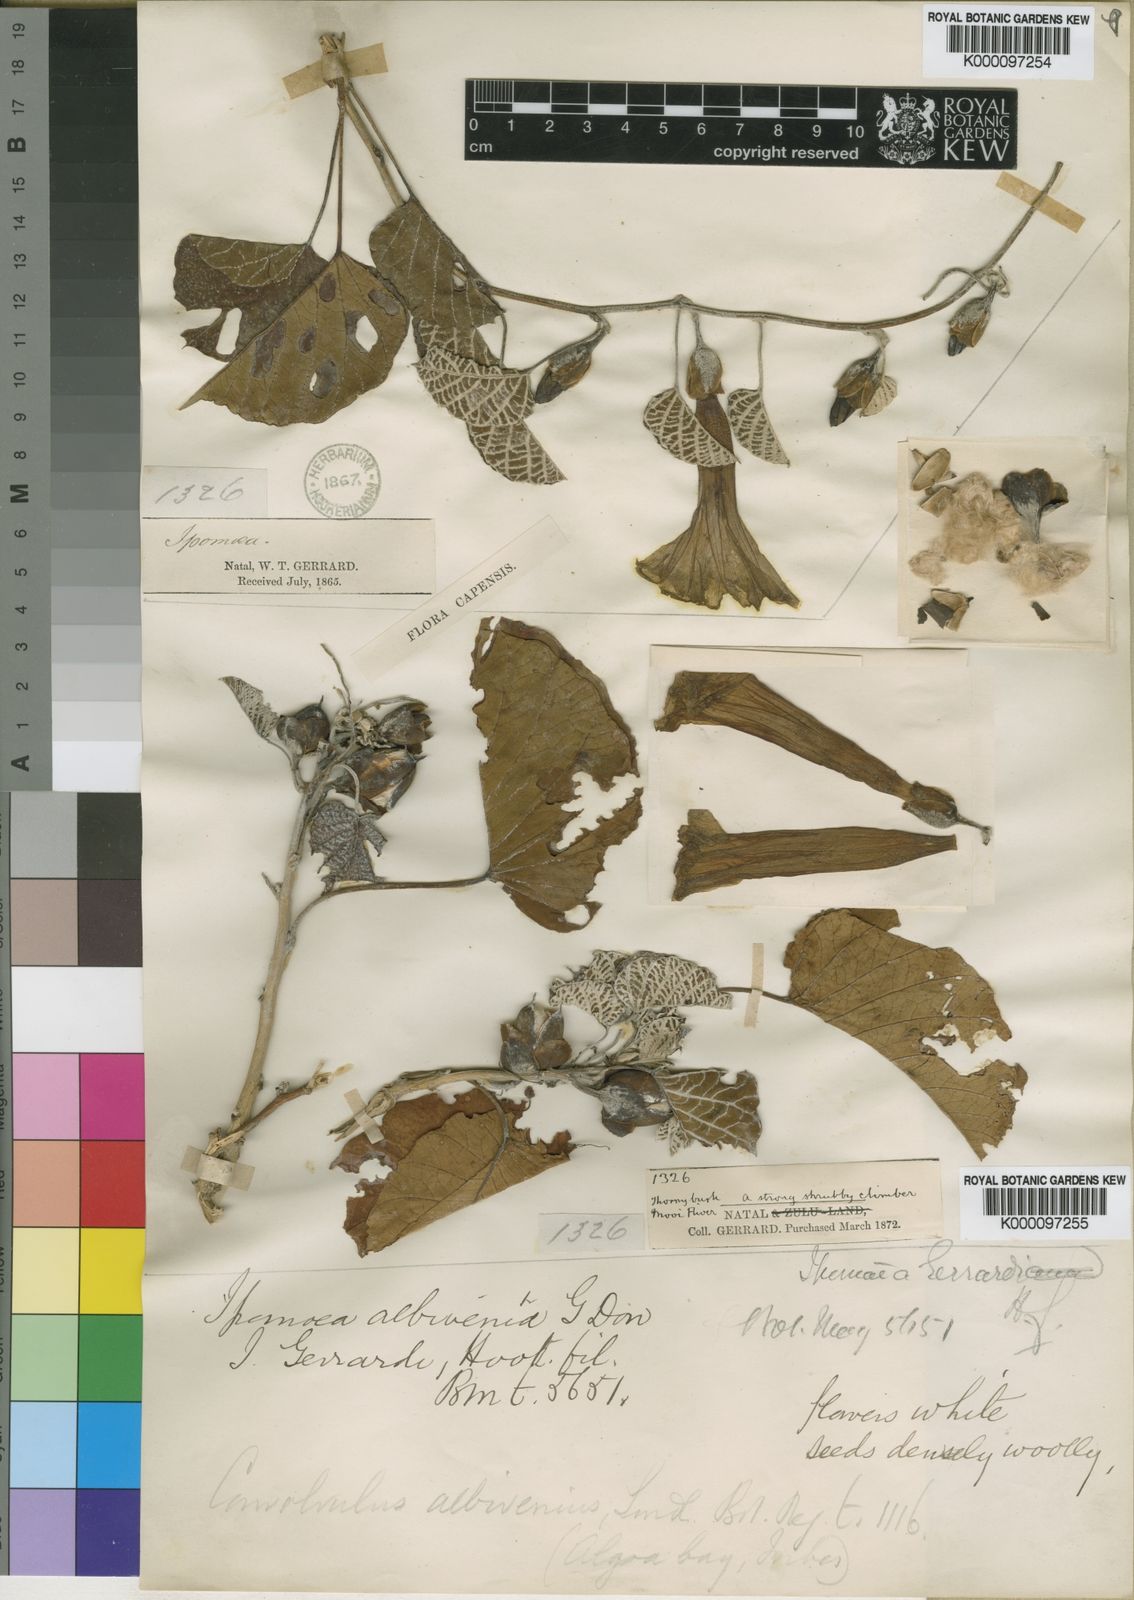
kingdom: Plantae
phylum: Tracheophyta
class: Magnoliopsida
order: Solanales
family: Convolvulaceae
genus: Ipomoea
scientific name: Ipomoea albivenia
